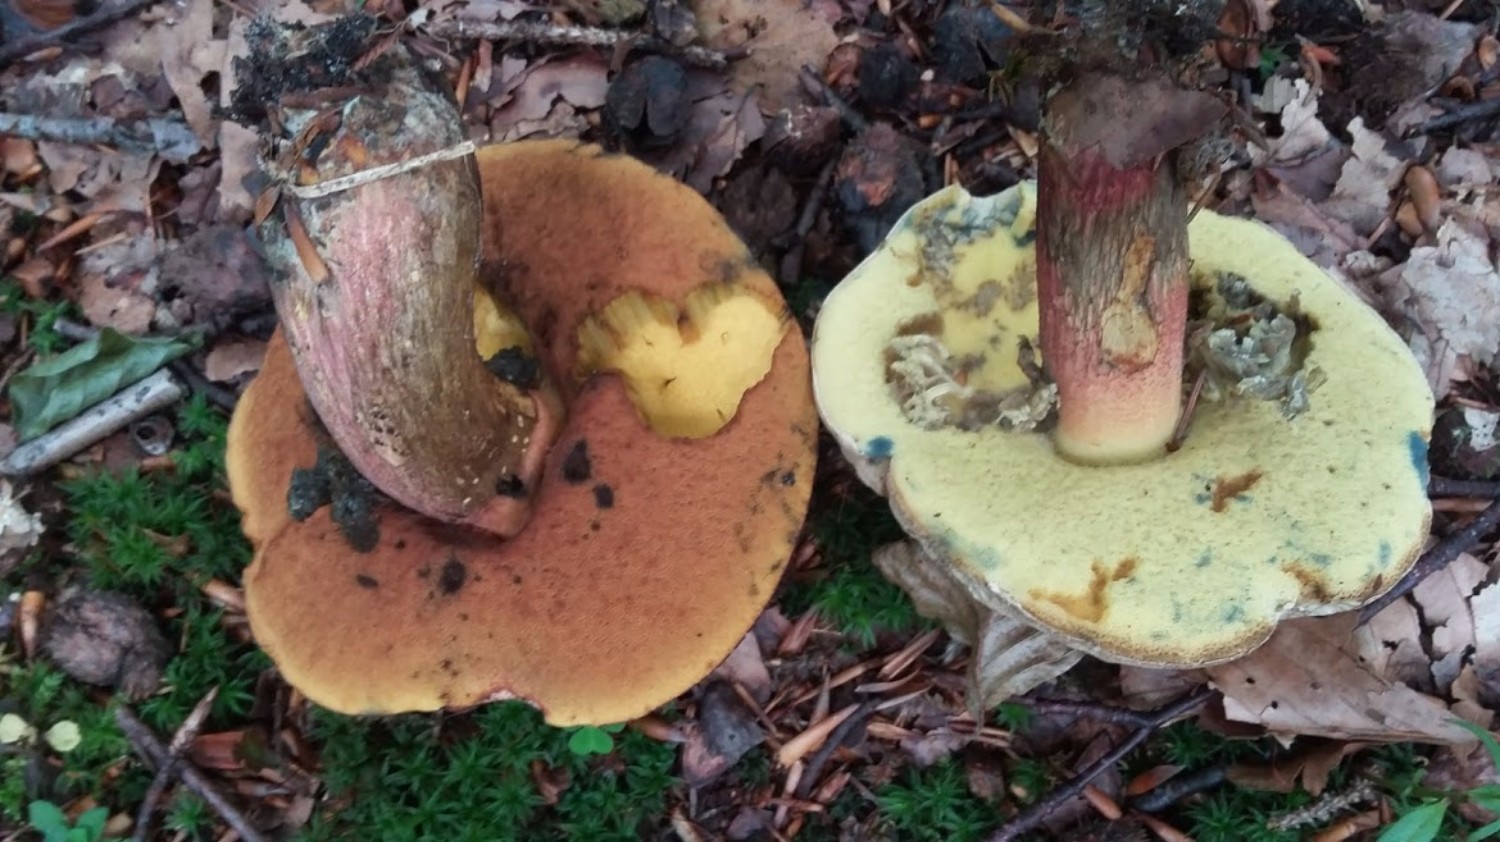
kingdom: Fungi
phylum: Basidiomycota
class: Agaricomycetes
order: Boletales
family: Boletaceae
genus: Caloboletus
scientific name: Caloboletus calopus
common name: skønfodet rørhat
